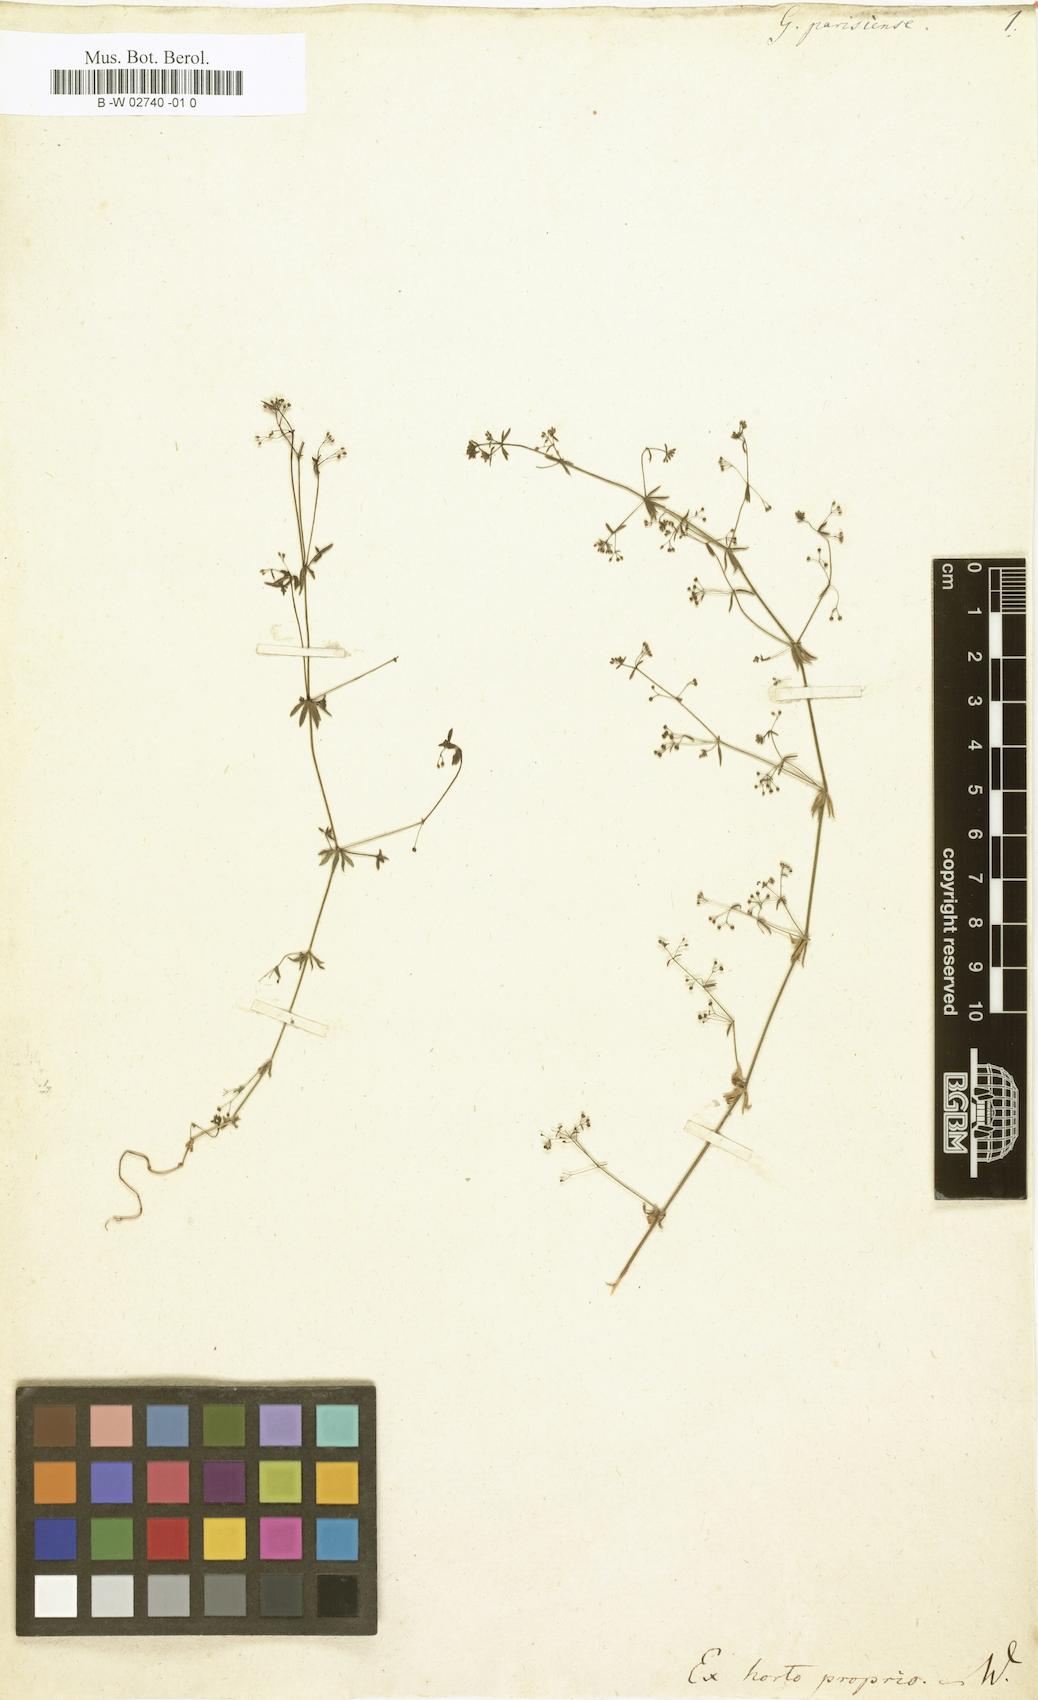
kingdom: Plantae
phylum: Tracheophyta
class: Magnoliopsida
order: Gentianales
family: Rubiaceae
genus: Galium
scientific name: Galium parisiense
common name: Wall bedstraw
